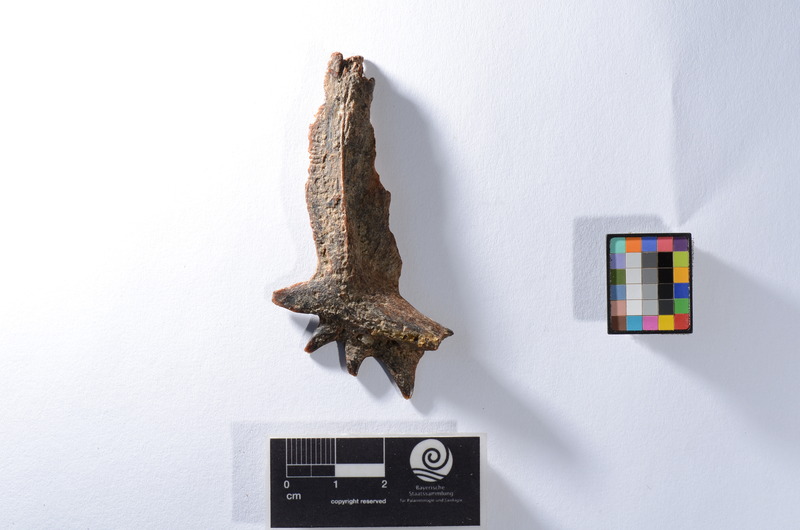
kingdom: Animalia
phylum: Chordata
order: Perciformes
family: Latidae
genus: Lates
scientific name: Lates niloticus
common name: Nile perch
